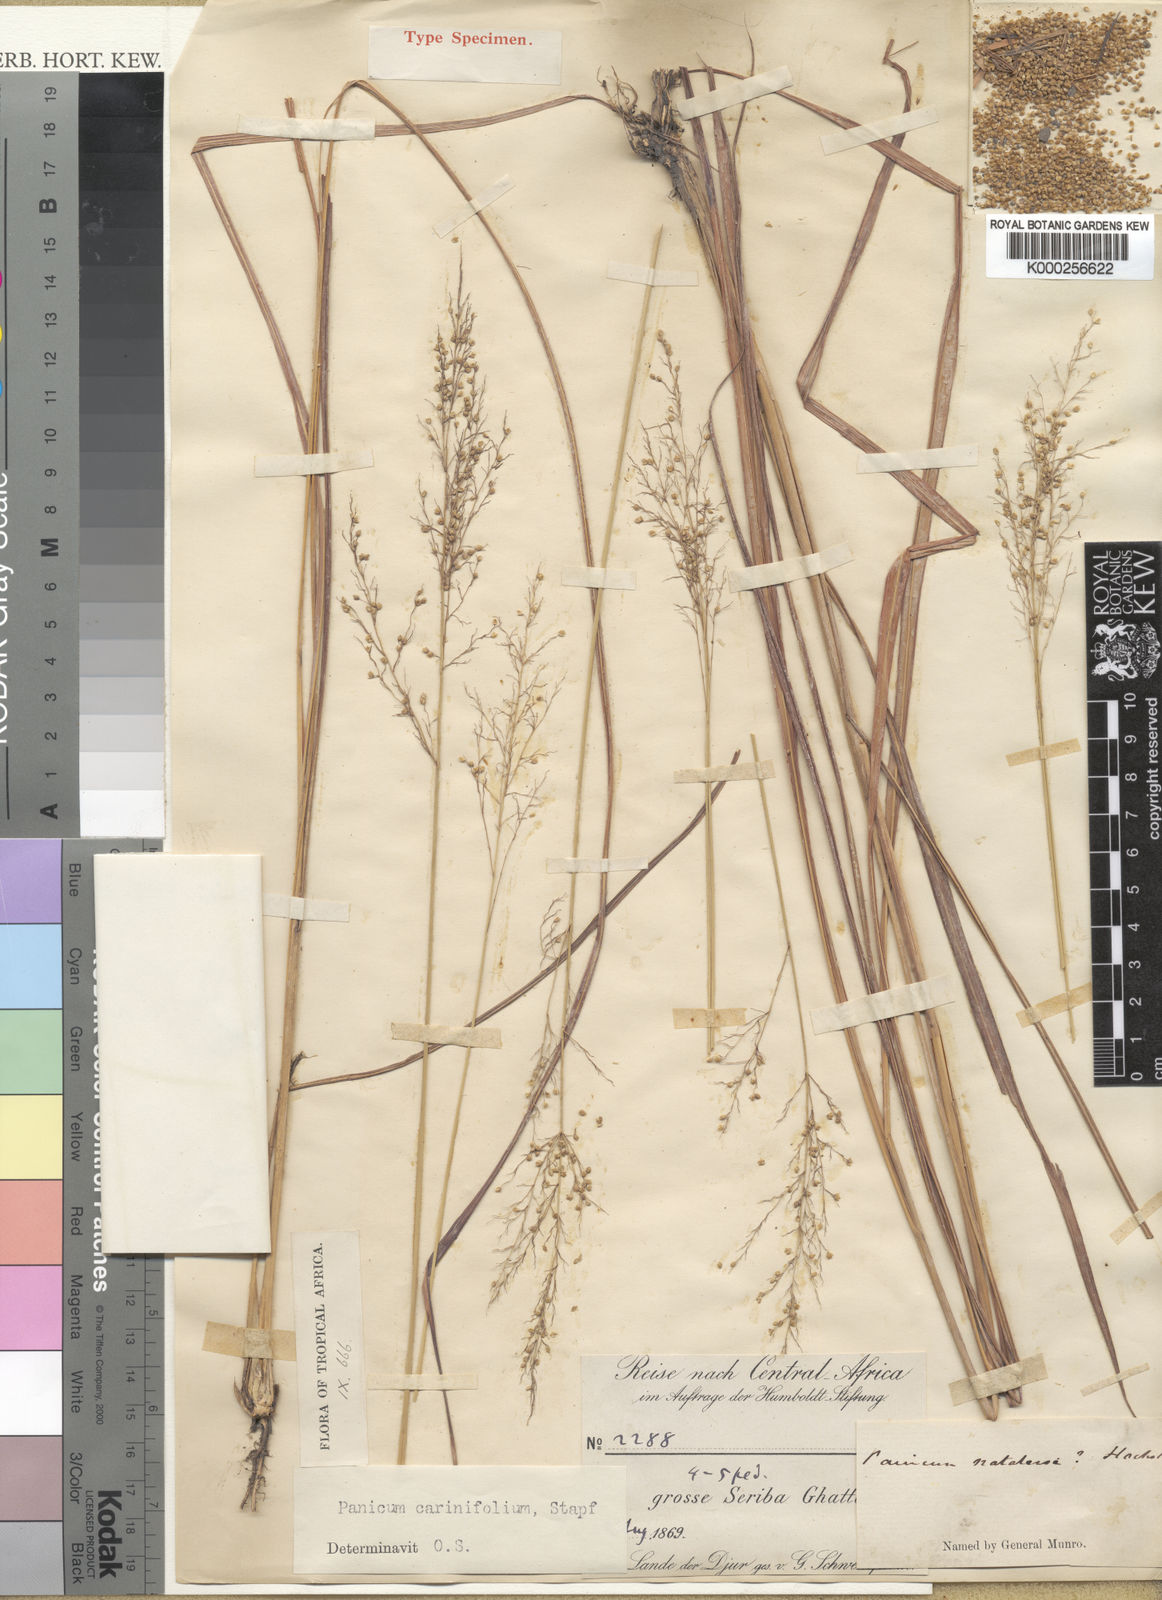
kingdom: Plantae
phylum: Tracheophyta
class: Liliopsida
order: Poales
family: Poaceae
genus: Trichanthecium
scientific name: Trichanthecium praealtum
